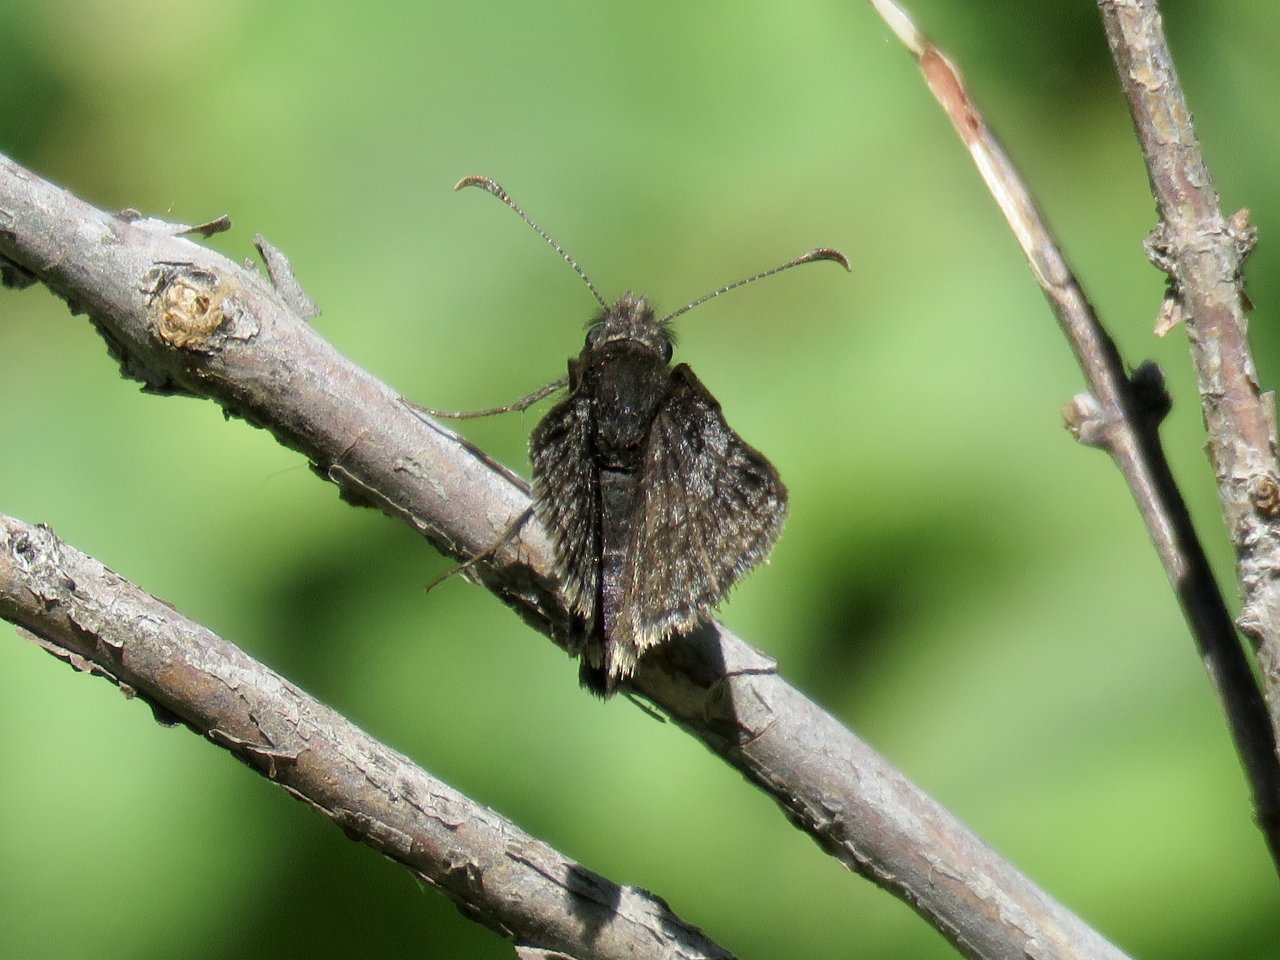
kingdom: Animalia
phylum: Arthropoda
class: Insecta
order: Lepidoptera
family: Hesperiidae
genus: Erynnis
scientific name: Erynnis brizo
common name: Sleepy Duskywing
